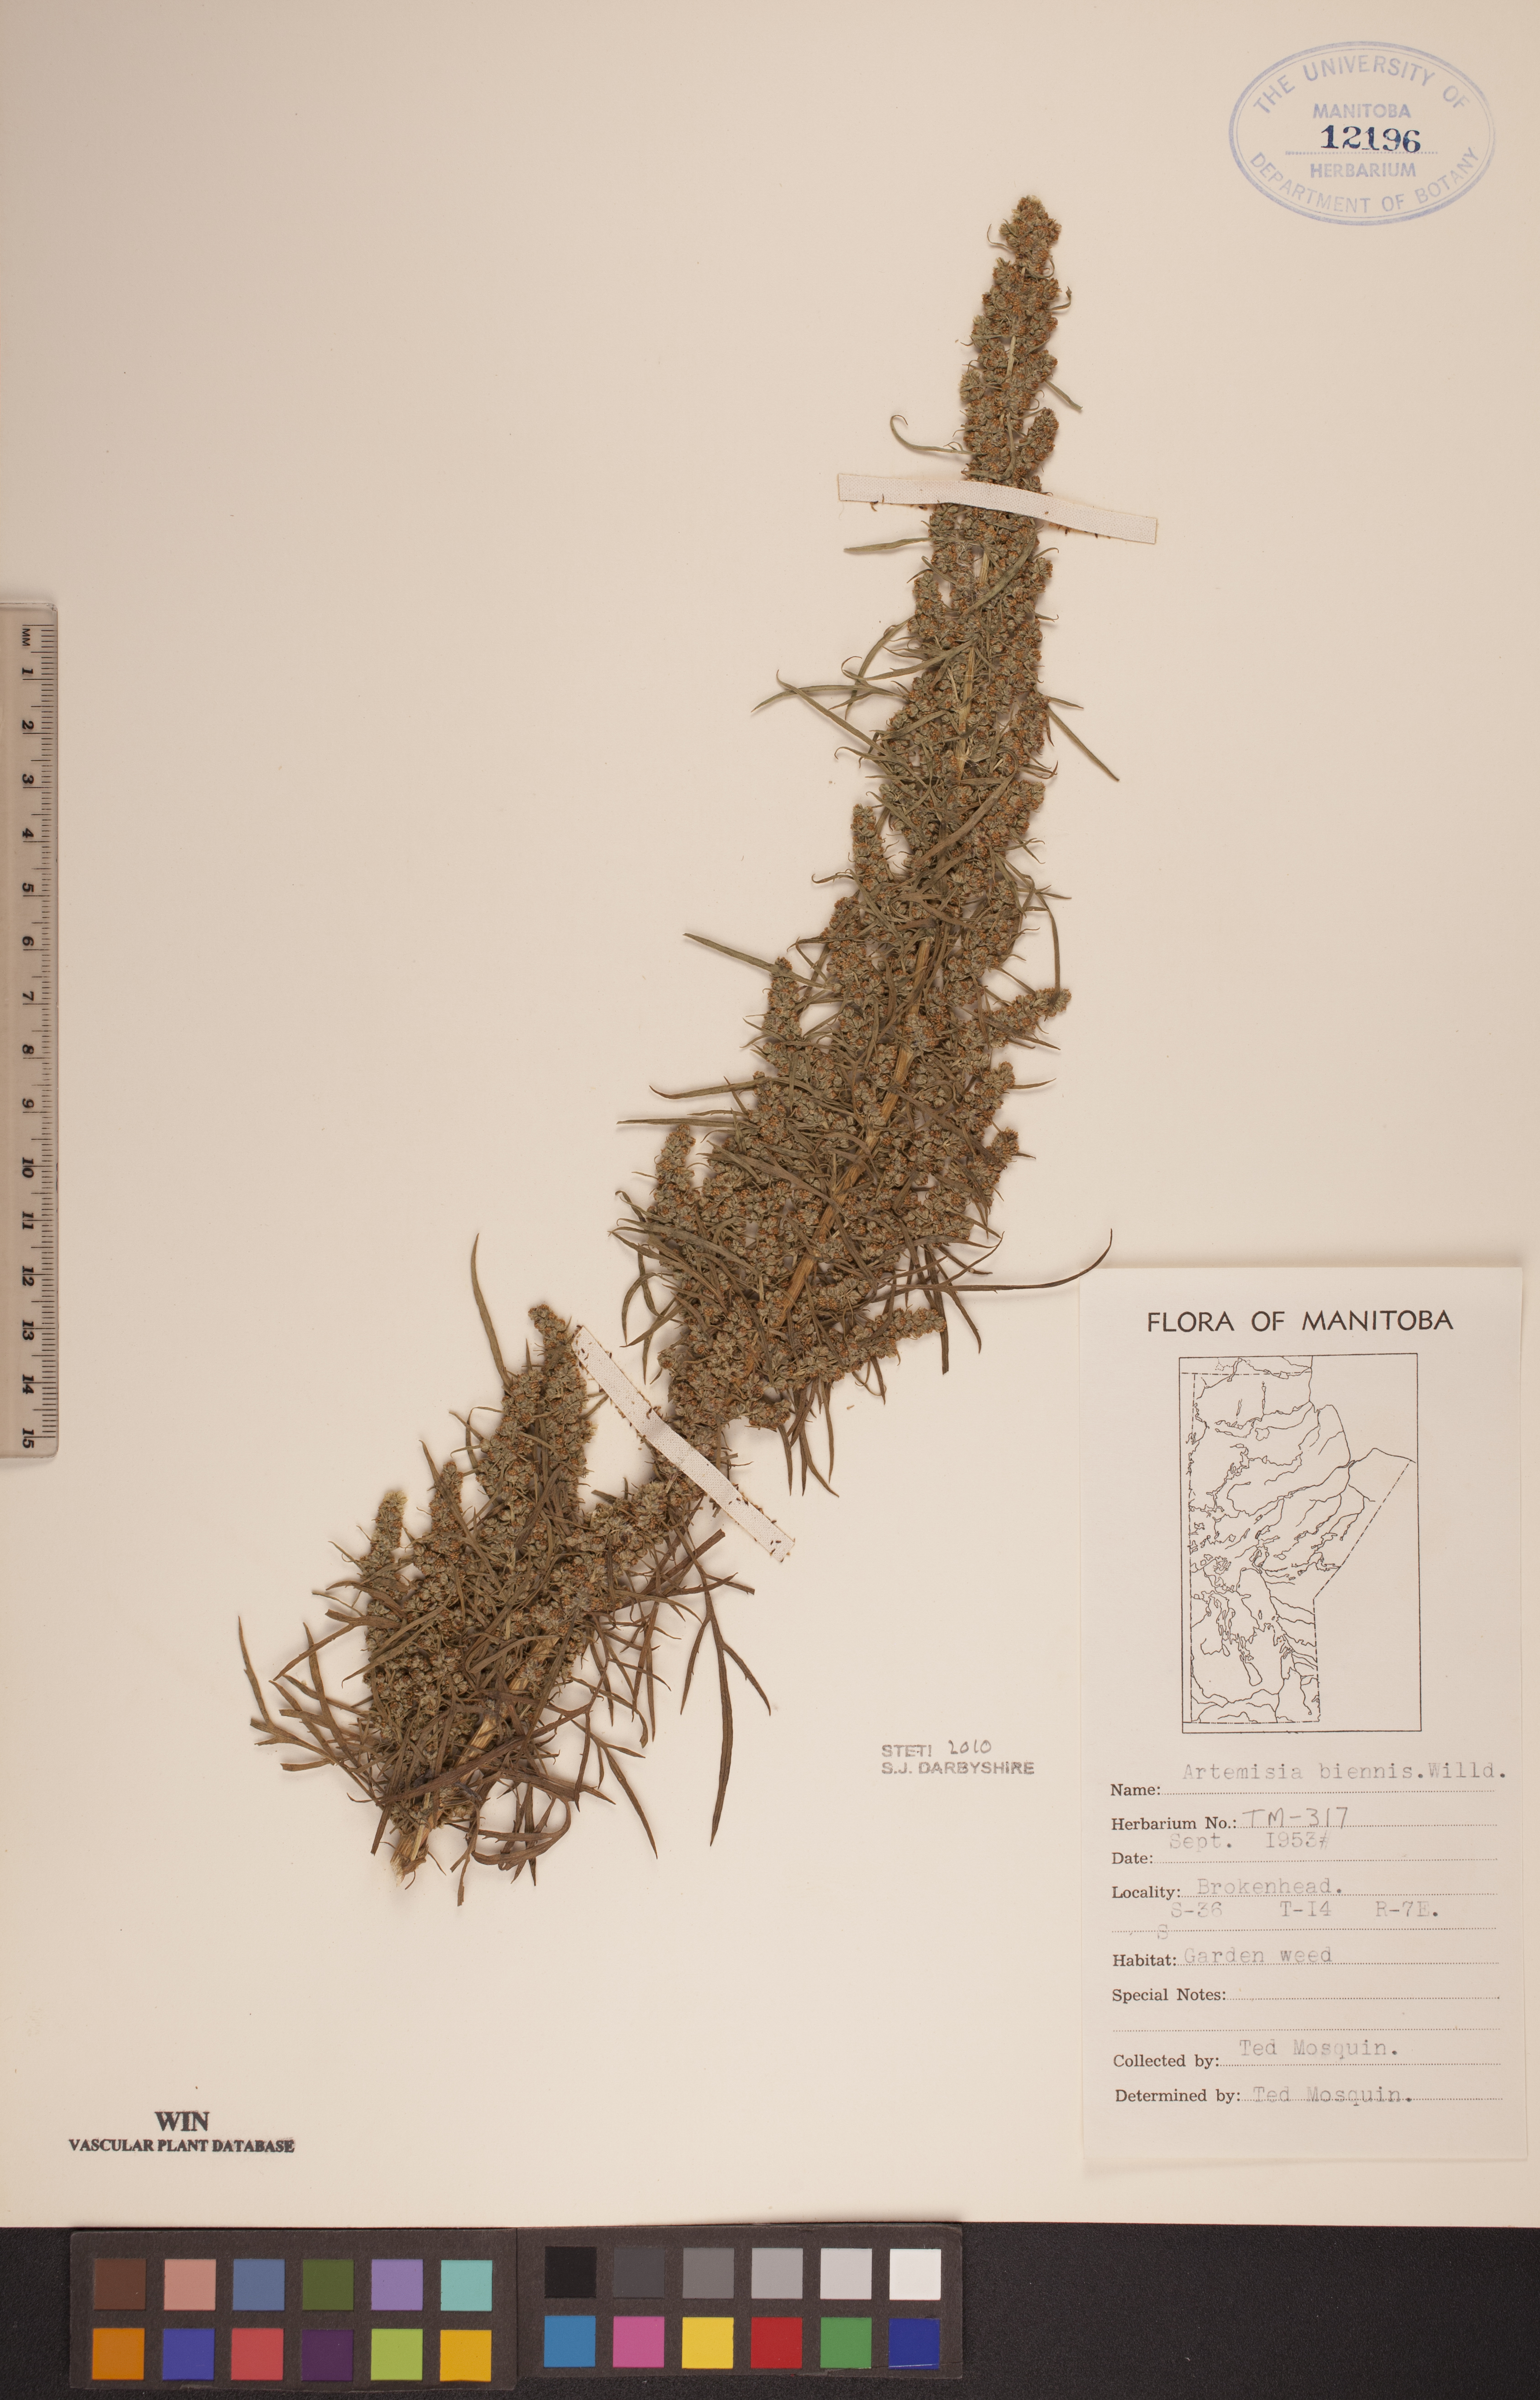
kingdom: Plantae
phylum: Tracheophyta
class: Magnoliopsida
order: Asterales
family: Asteraceae
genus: Artemisia
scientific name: Artemisia biennis
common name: Biennial wormwood
